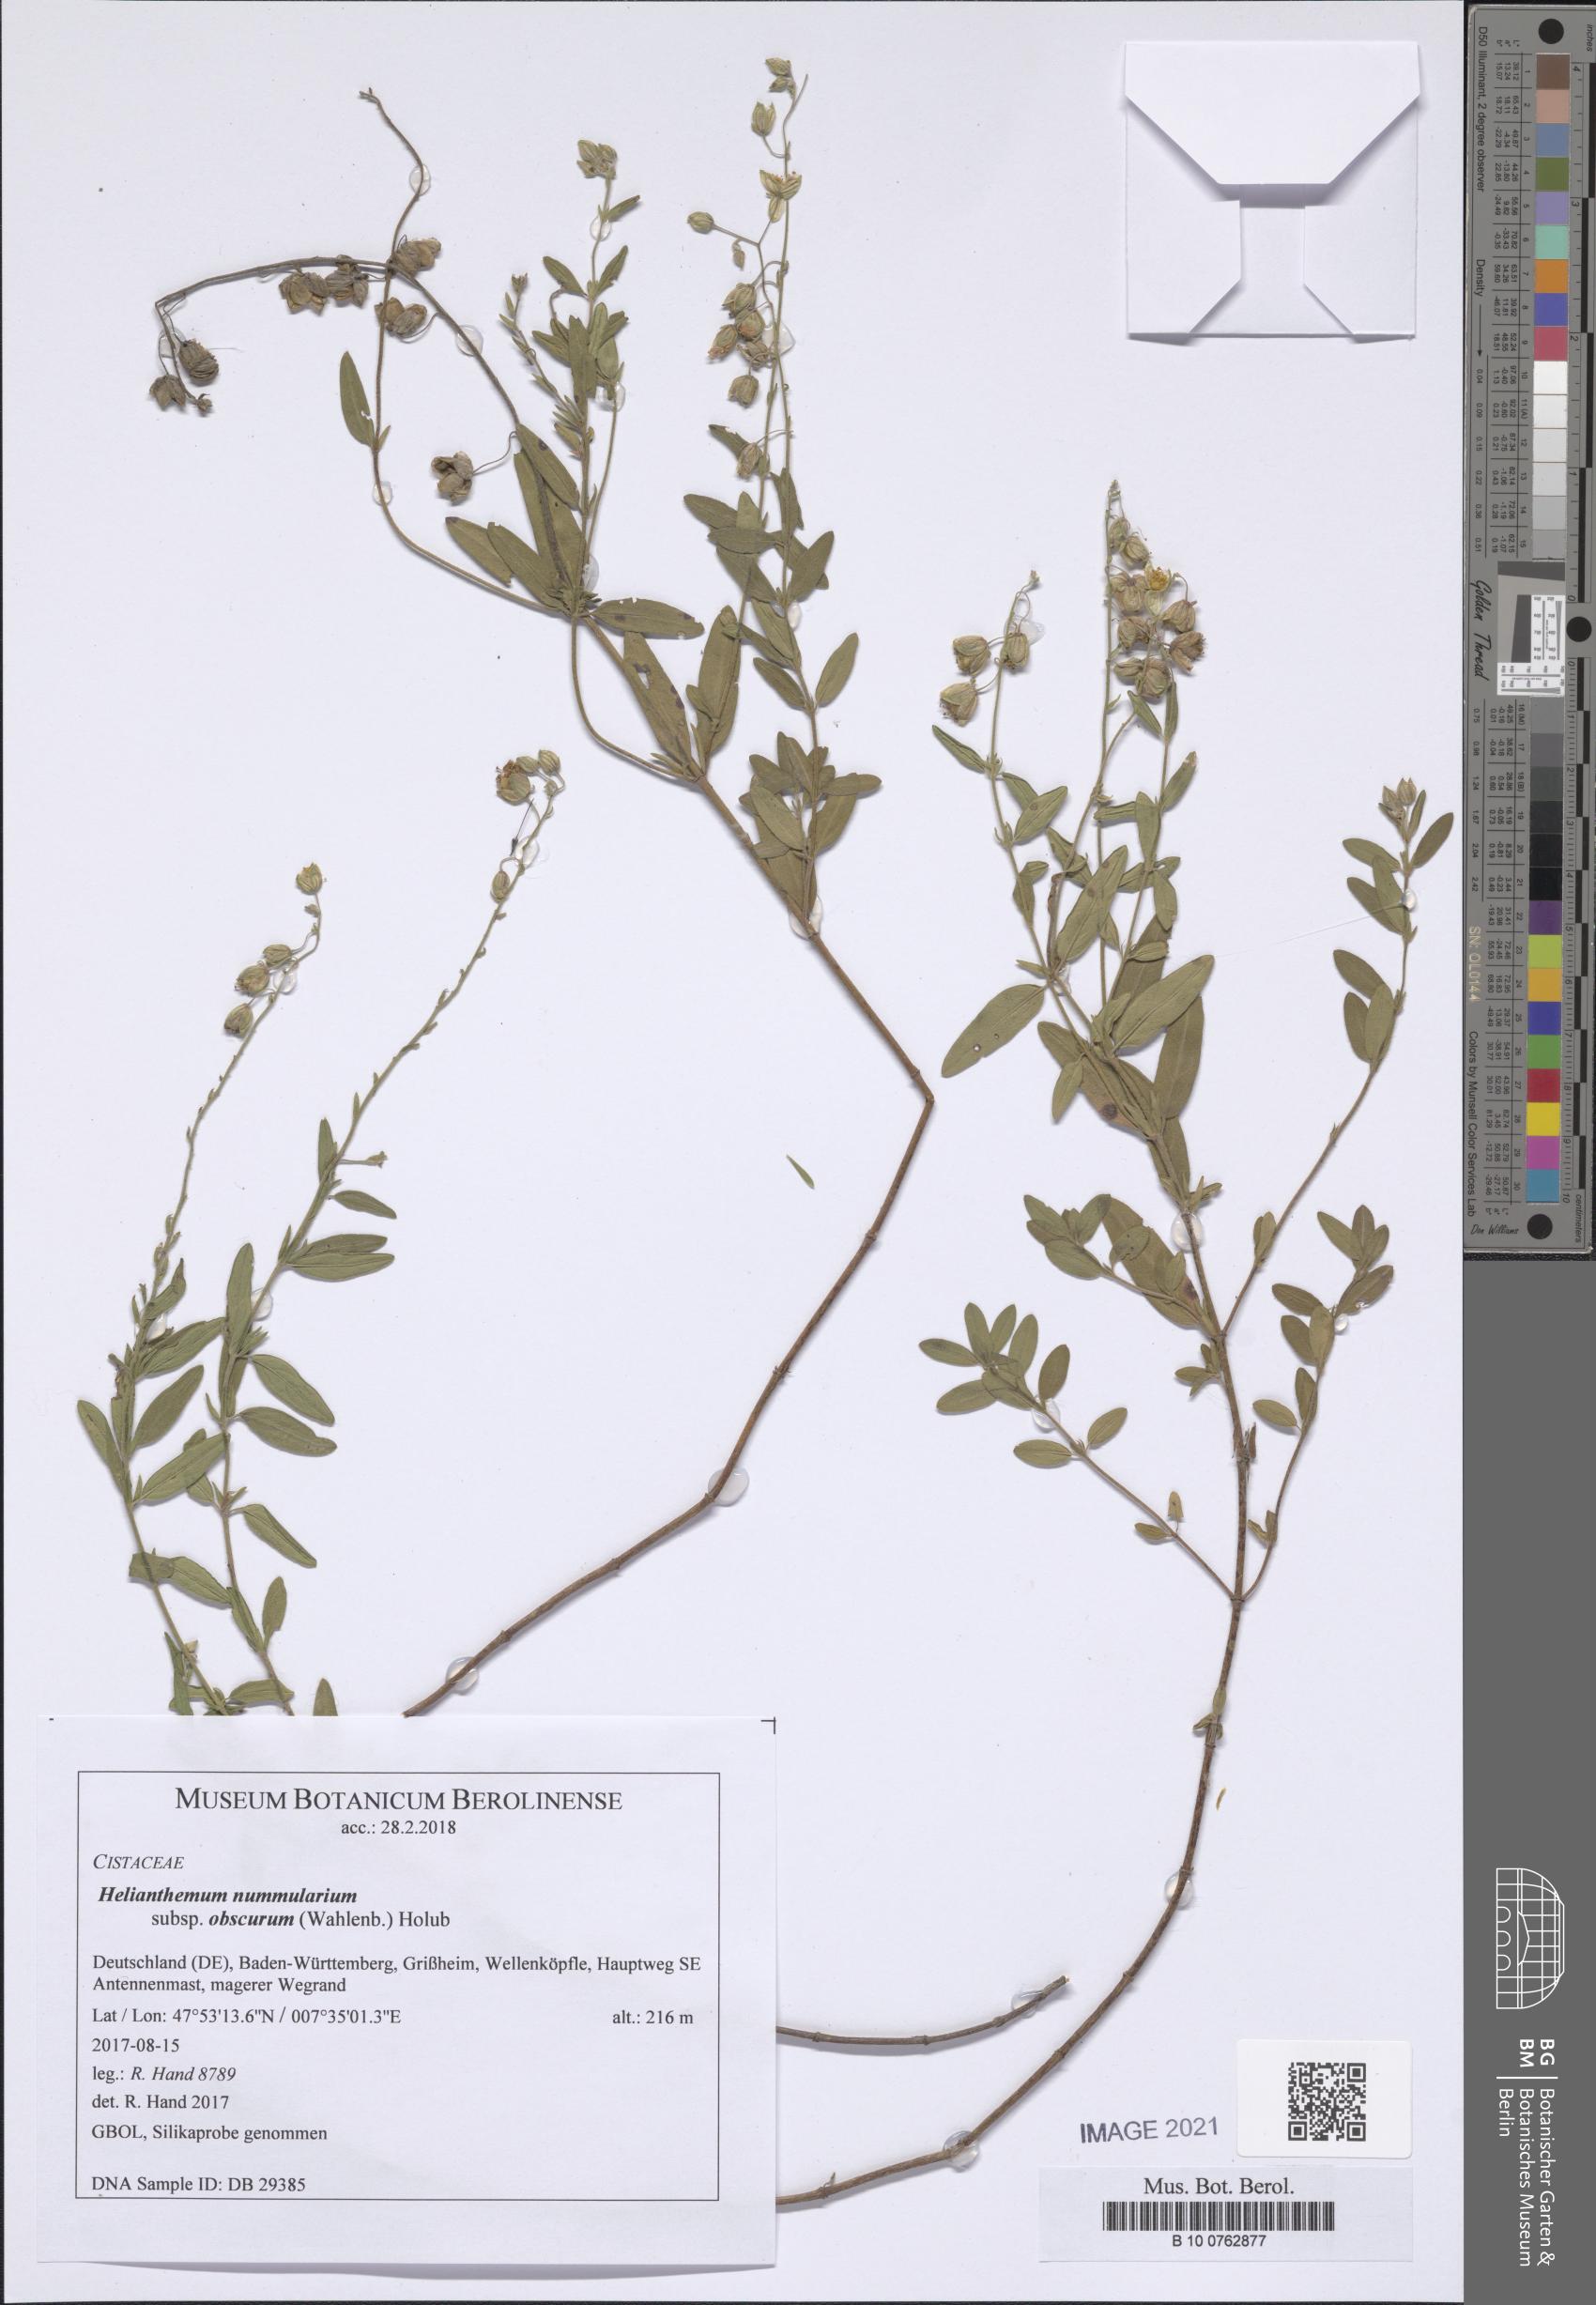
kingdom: Plantae
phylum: Tracheophyta
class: Magnoliopsida
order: Malvales
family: Cistaceae
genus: Helianthemum
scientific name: Helianthemum nummularium
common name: Common rock-rose
